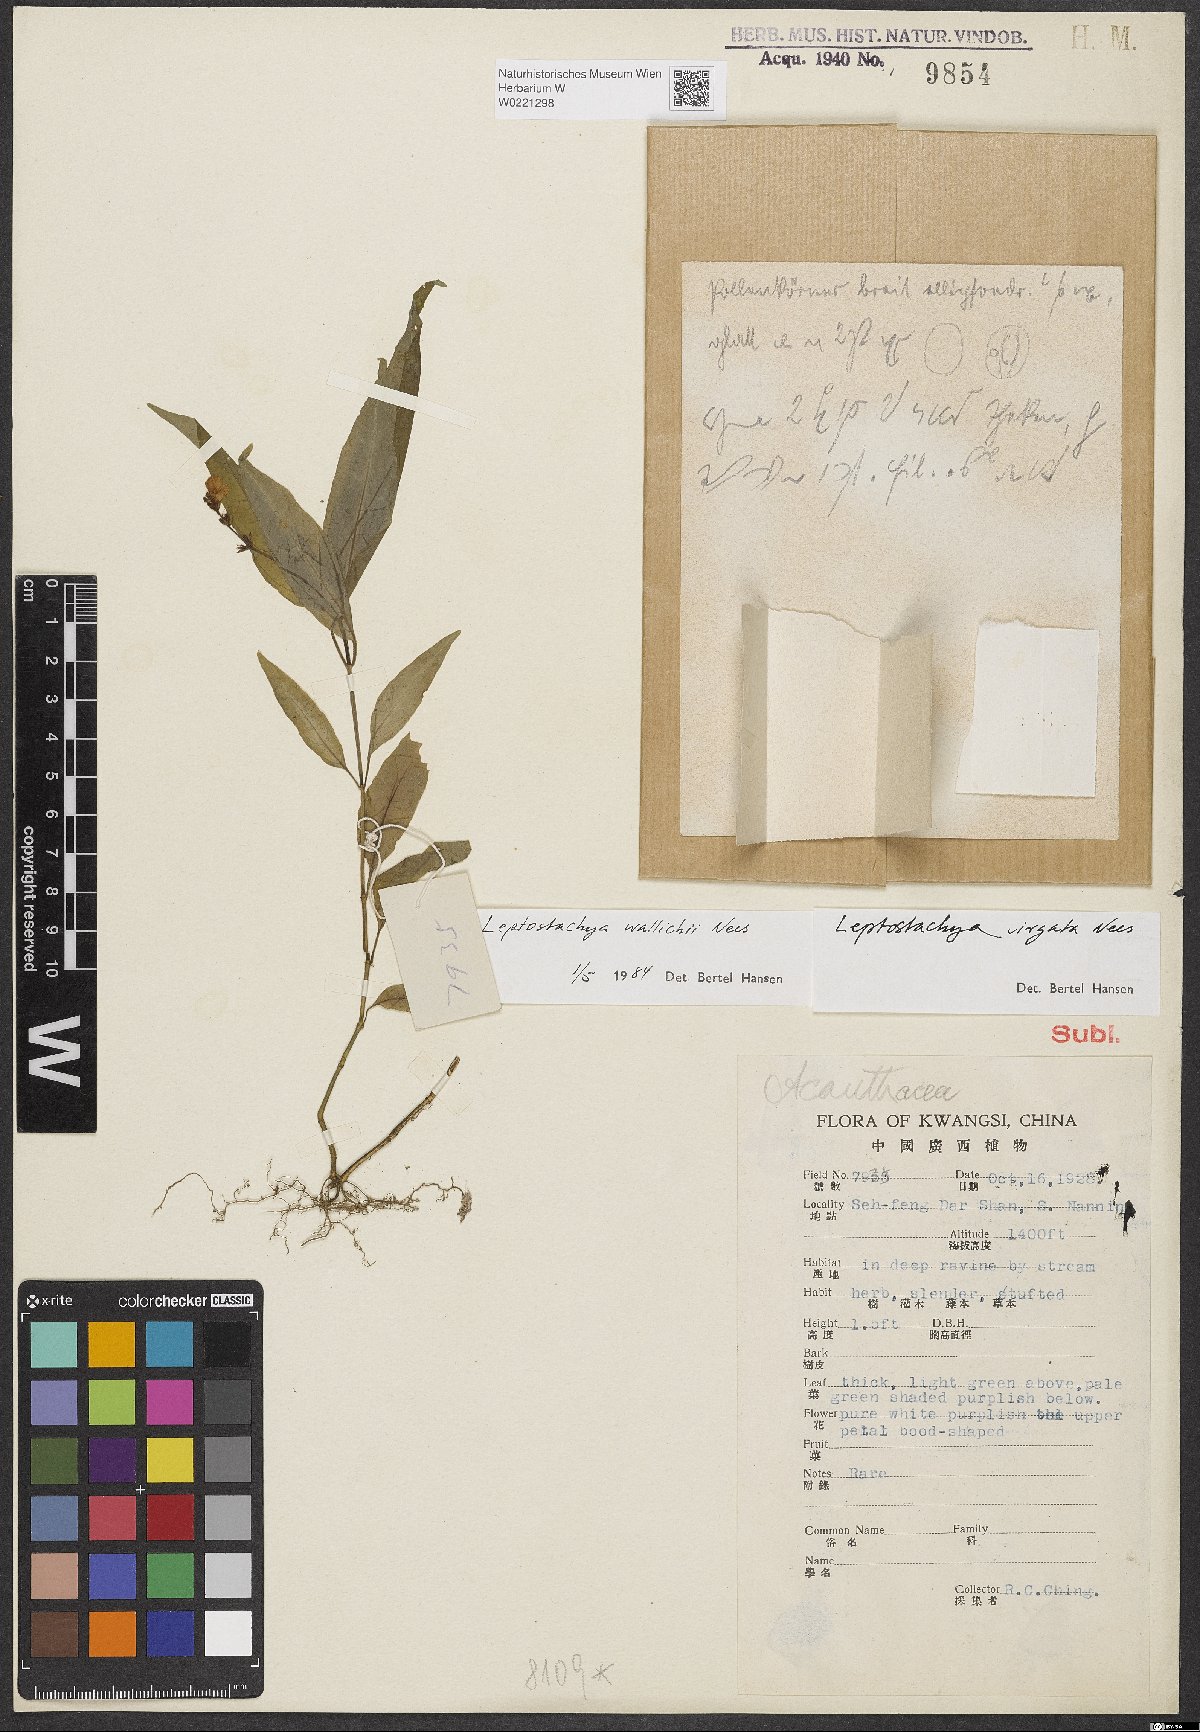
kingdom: Plantae
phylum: Tracheophyta
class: Magnoliopsida
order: Lamiales
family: Acanthaceae
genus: Leptostachya
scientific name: Leptostachya wallichii
